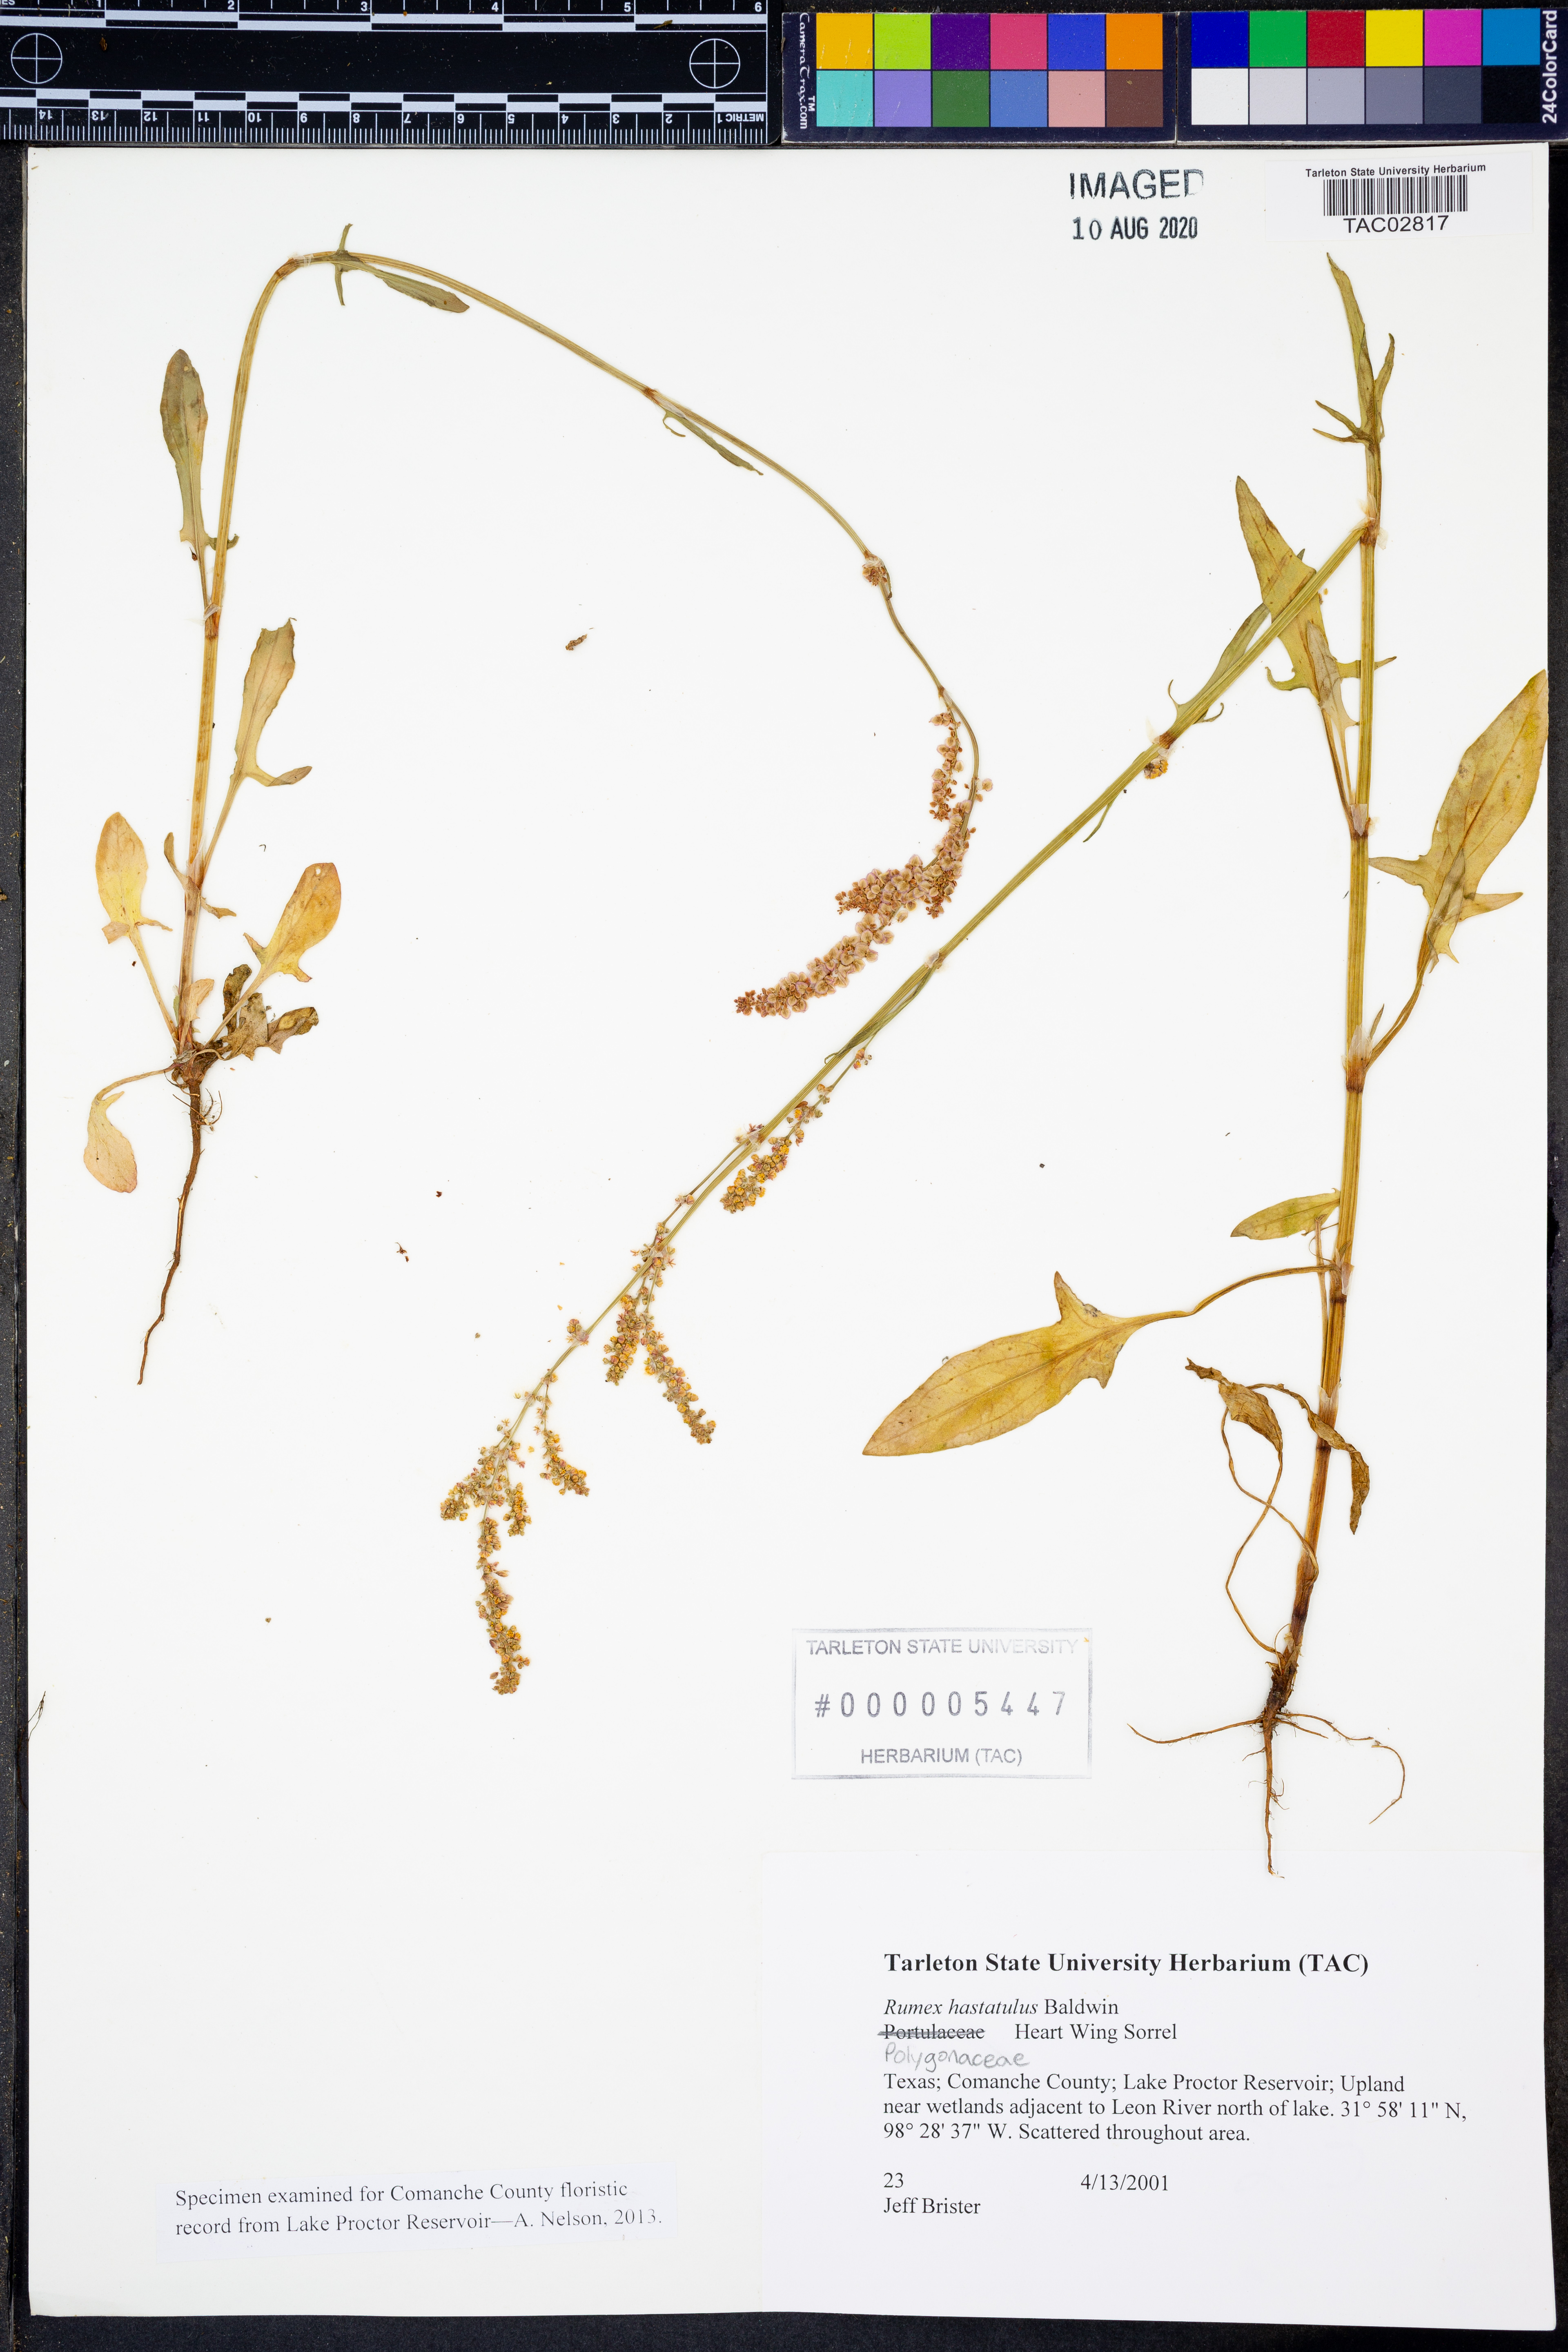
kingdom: Plantae
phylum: Tracheophyta
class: Magnoliopsida
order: Caryophyllales
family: Polygonaceae
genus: Rumex
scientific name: Rumex hastatulus
